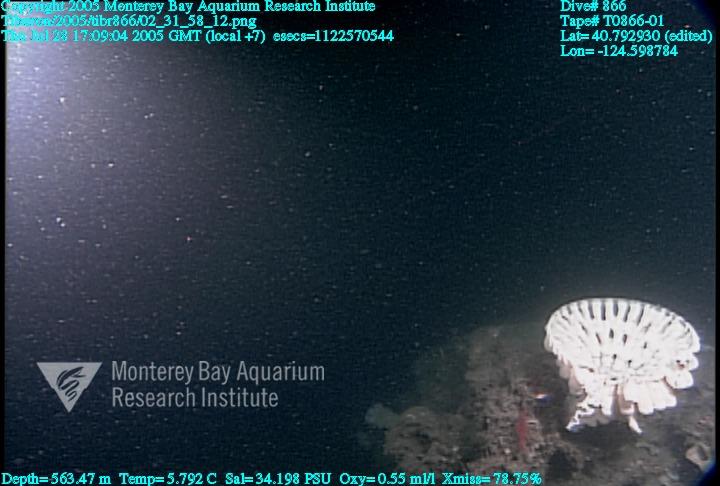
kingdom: Animalia
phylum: Porifera
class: Hexactinellida
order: Sceptrulophora
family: Aphrocallistidae
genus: Heterochone
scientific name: Heterochone calyx
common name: Fingered goblet glass sponge
